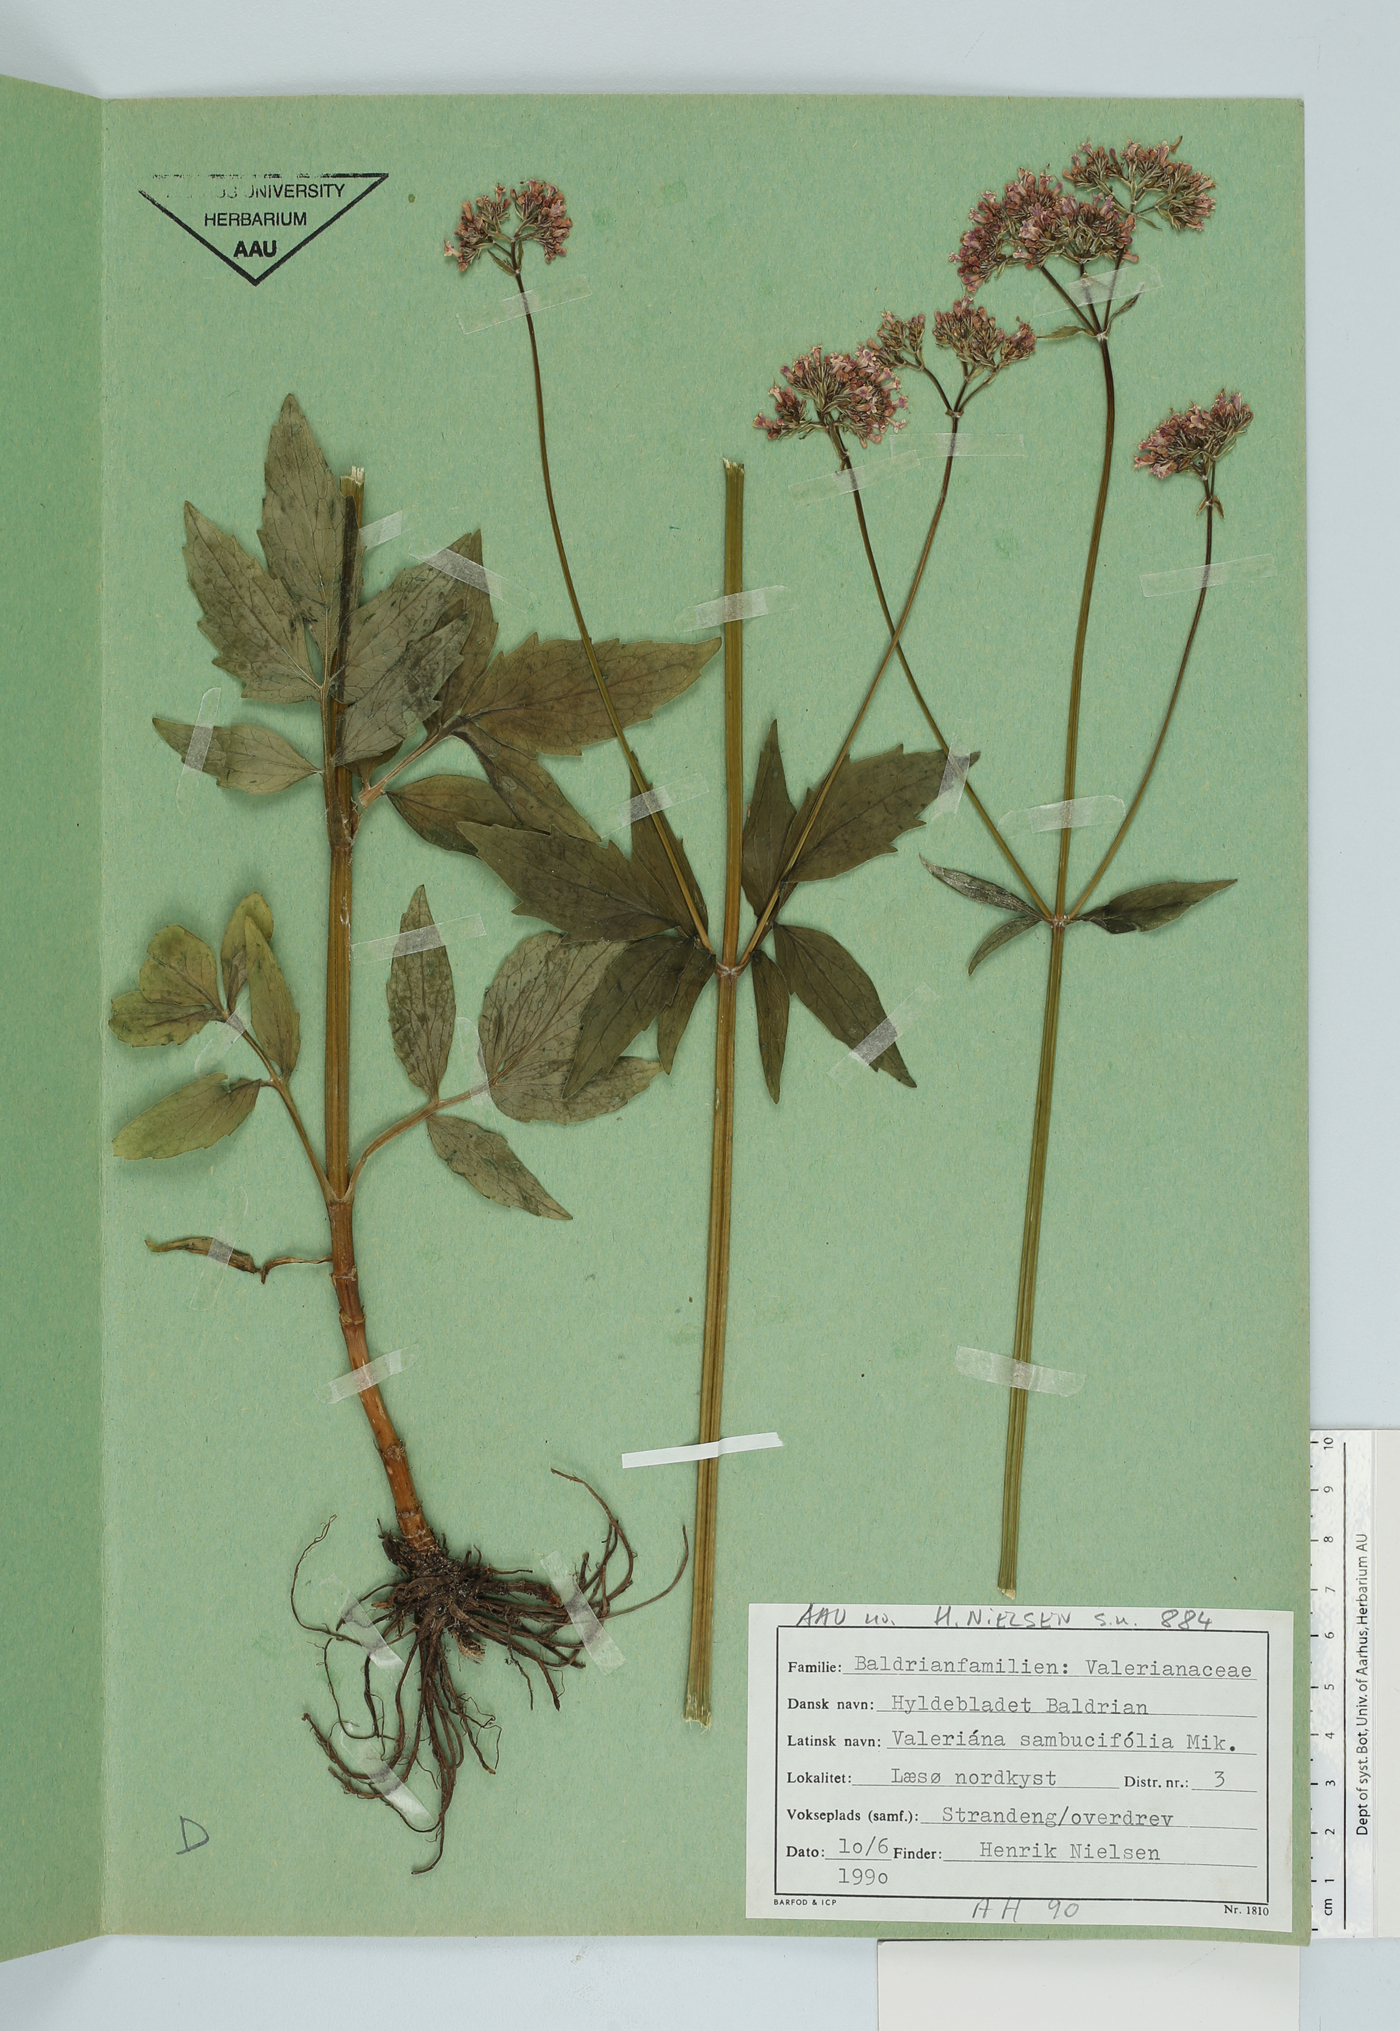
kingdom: Plantae
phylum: Tracheophyta
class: Magnoliopsida
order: Dipsacales
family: Caprifoliaceae
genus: Valeriana
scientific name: Valeriana excelsa
